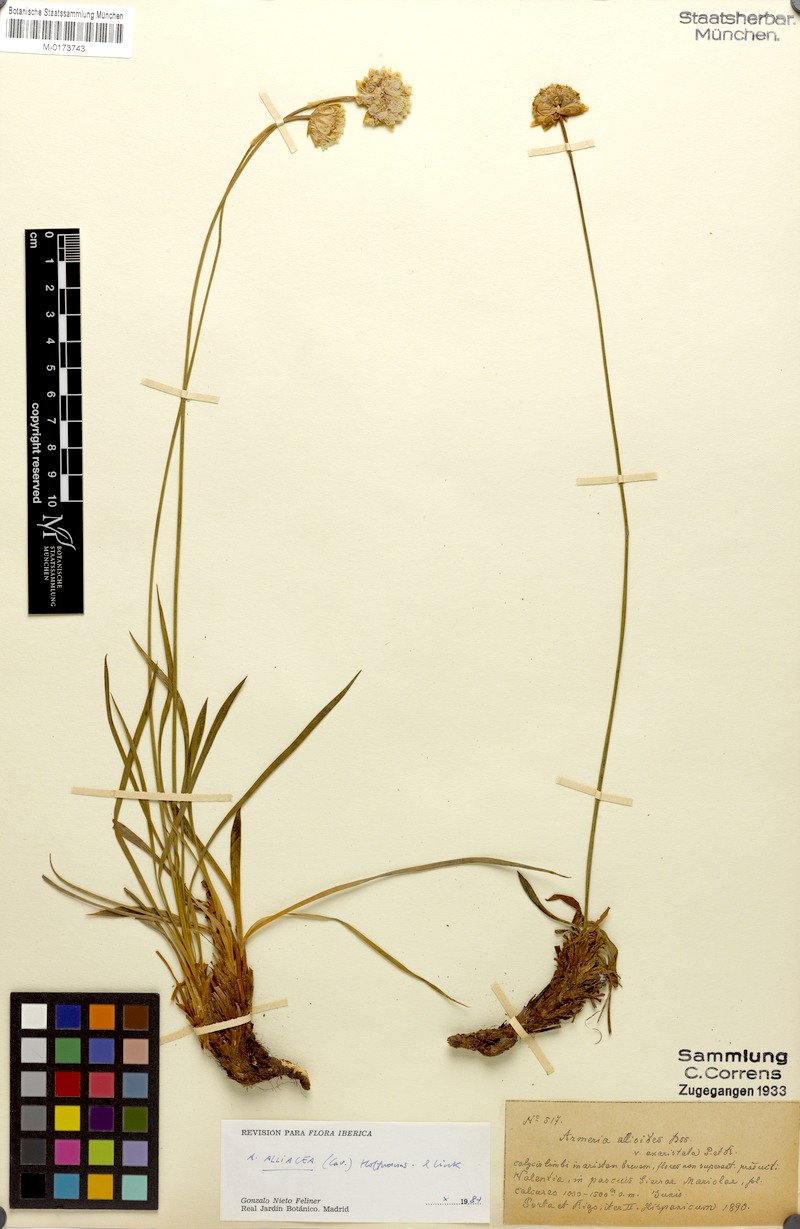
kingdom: Plantae
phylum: Tracheophyta
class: Magnoliopsida
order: Caryophyllales
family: Plumbaginaceae
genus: Armeria
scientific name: Armeria alliacea
